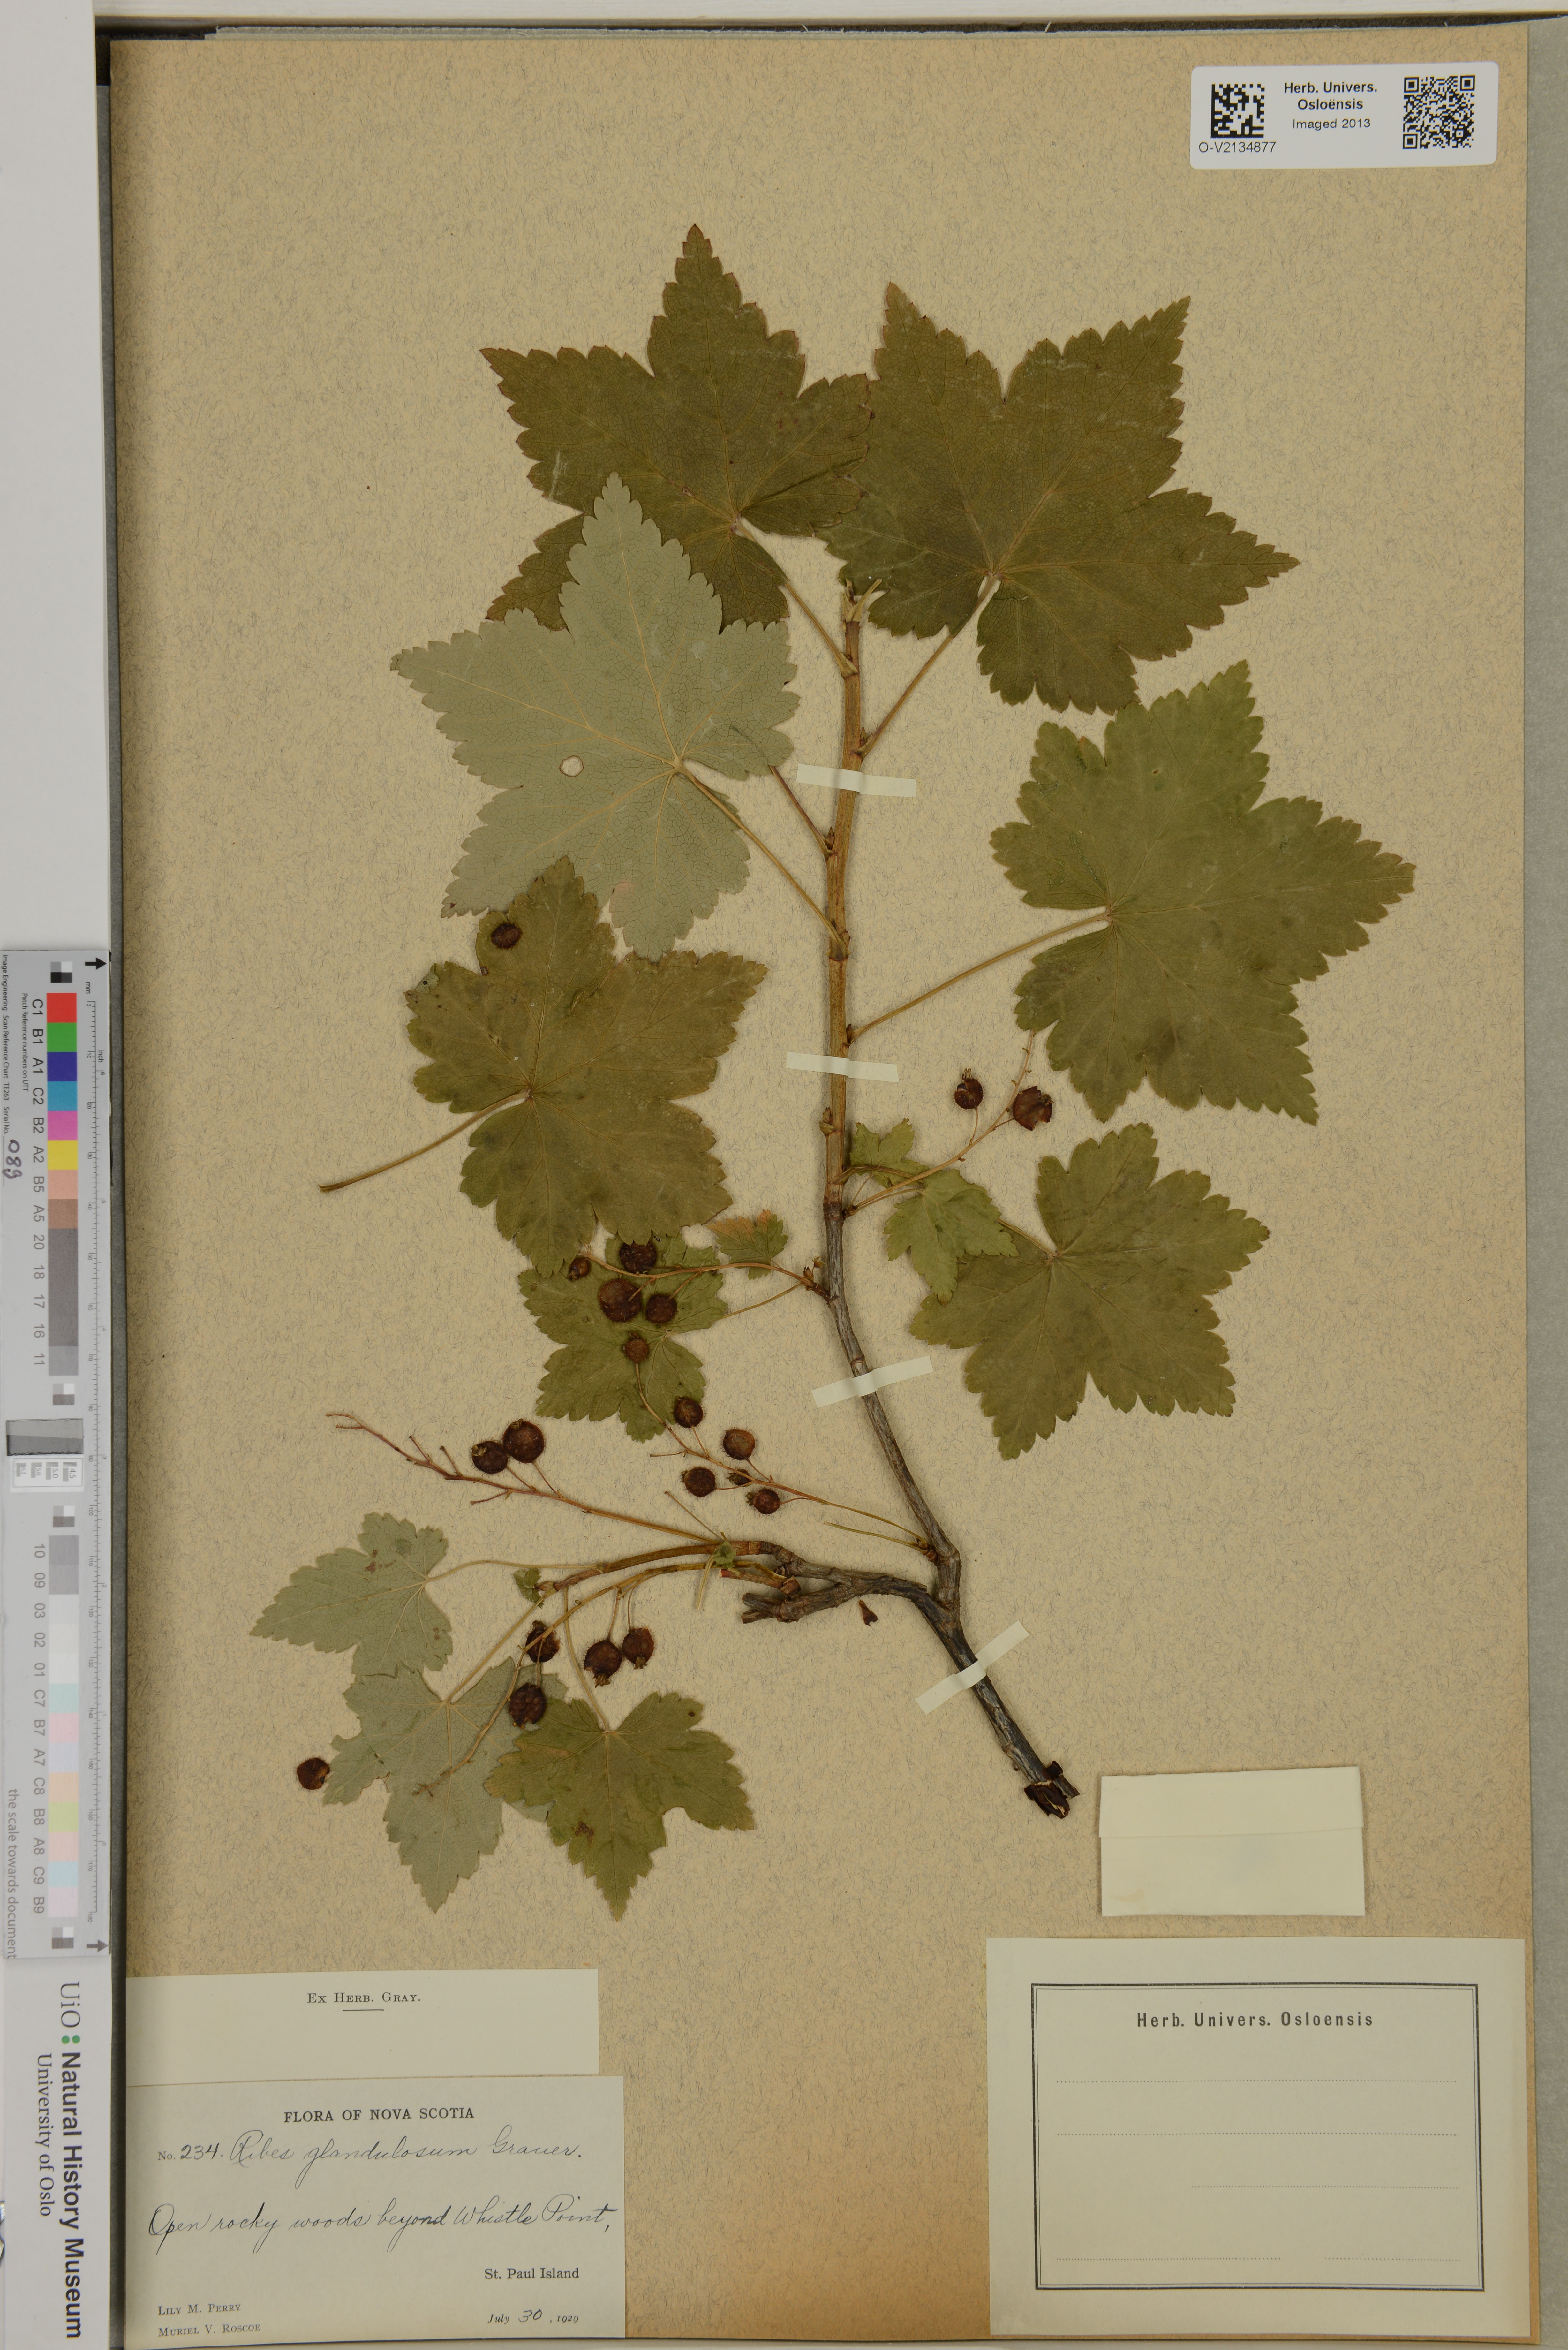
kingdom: Plantae
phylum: Tracheophyta
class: Magnoliopsida
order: Saxifragales
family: Grossulariaceae
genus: Ribes
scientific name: Ribes glandulosum
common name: Skunk currant
